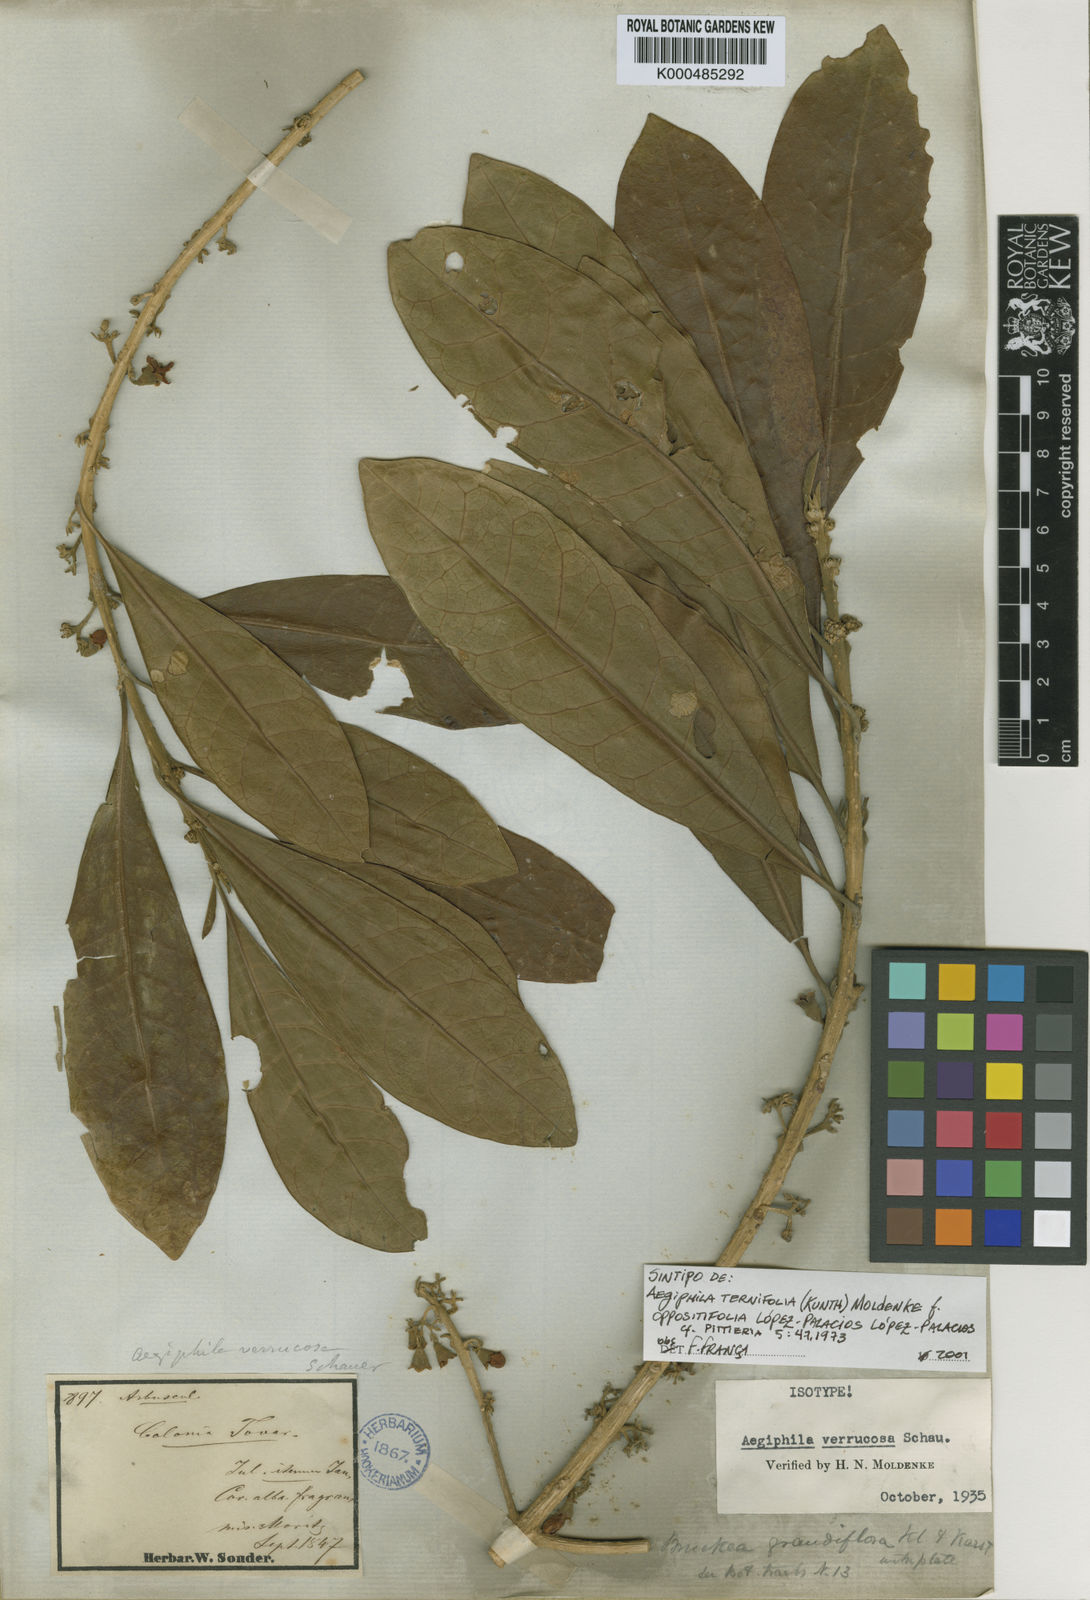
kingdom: Plantae
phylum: Tracheophyta
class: Magnoliopsida
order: Lamiales
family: Lamiaceae
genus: Aegiphila
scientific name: Aegiphila ternifolia
